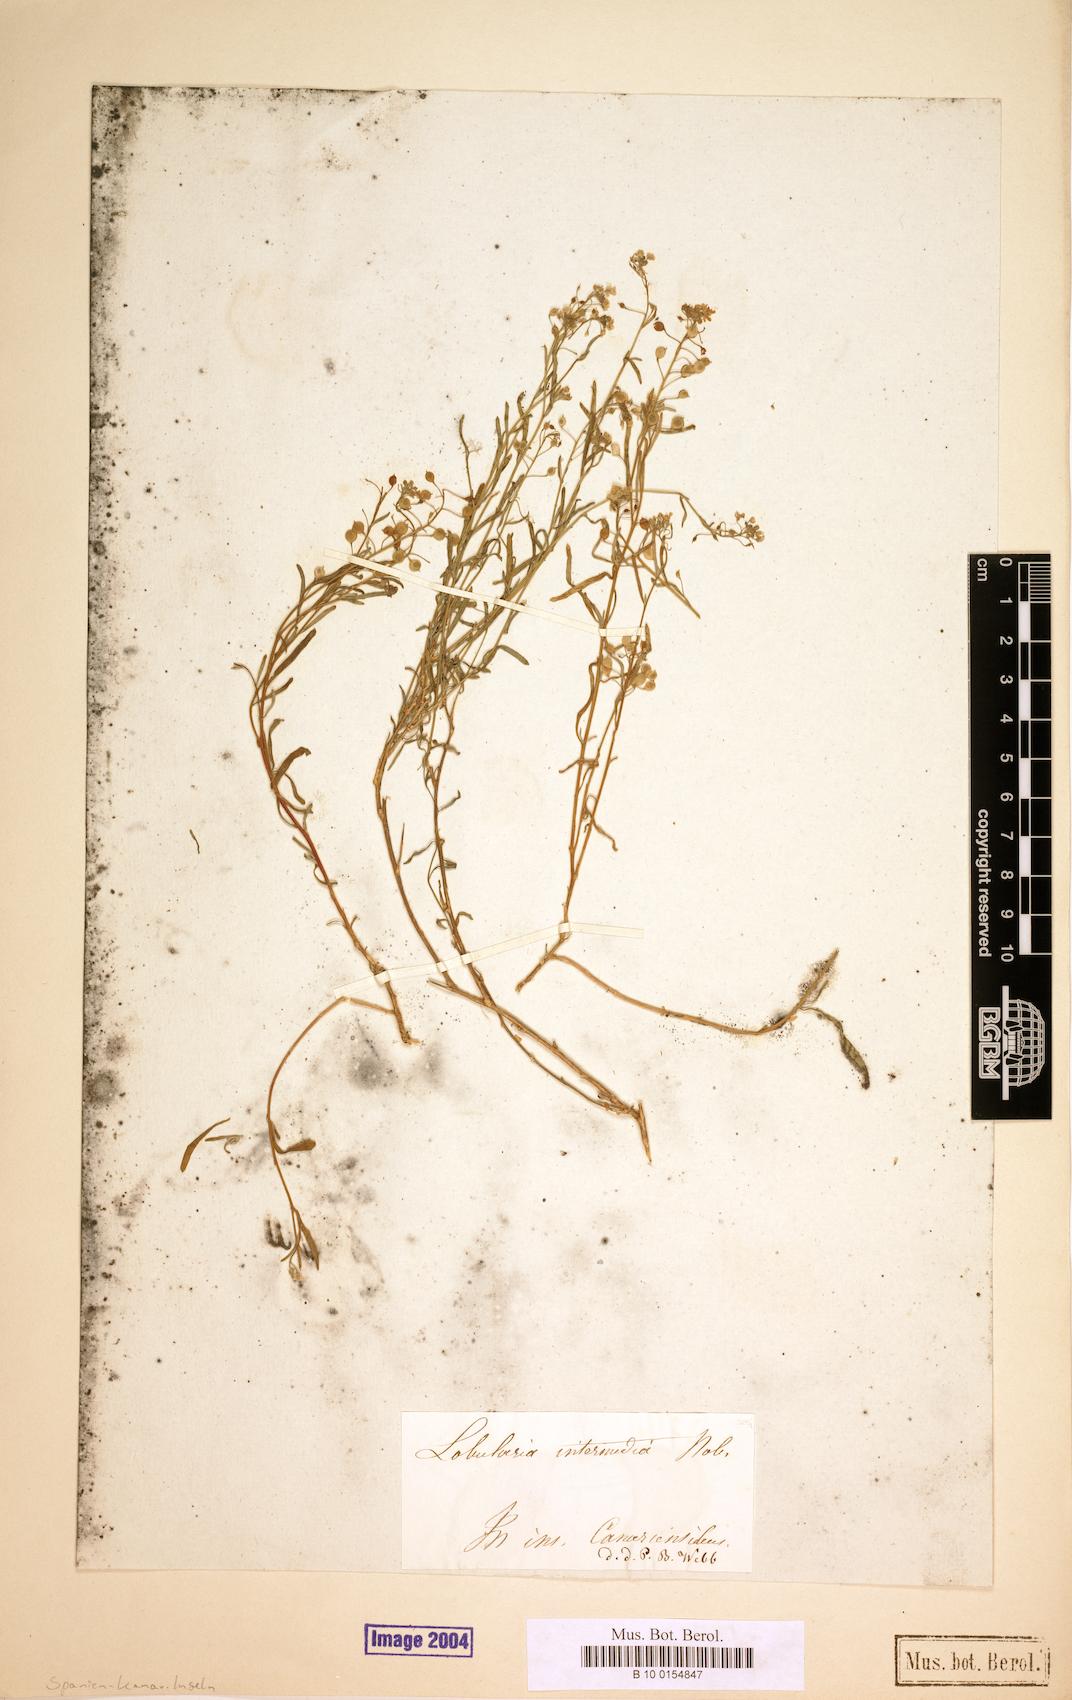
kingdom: Plantae
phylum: Tracheophyta
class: Magnoliopsida
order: Brassicales
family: Brassicaceae
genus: Lobularia
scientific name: Lobularia canariensis
